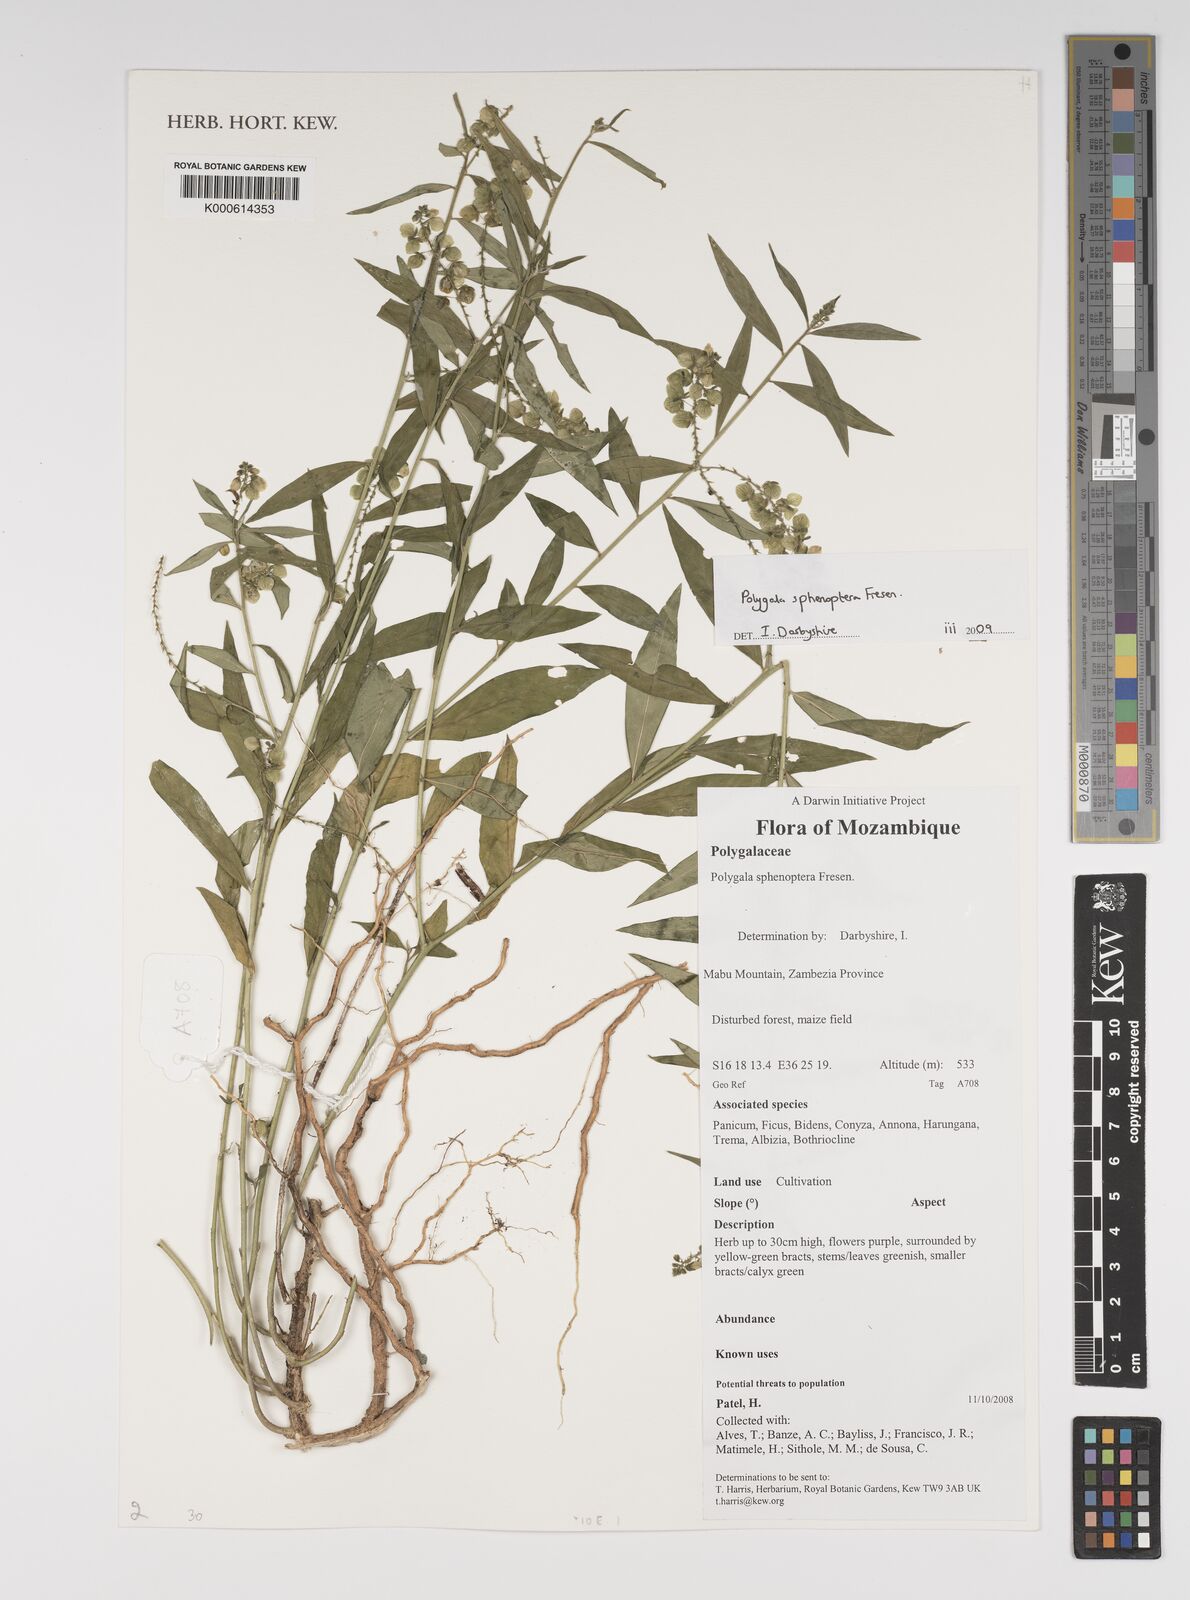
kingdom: Plantae
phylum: Tracheophyta
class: Magnoliopsida
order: Fabales
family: Polygalaceae
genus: Polygala
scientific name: Polygala sphenoptera
